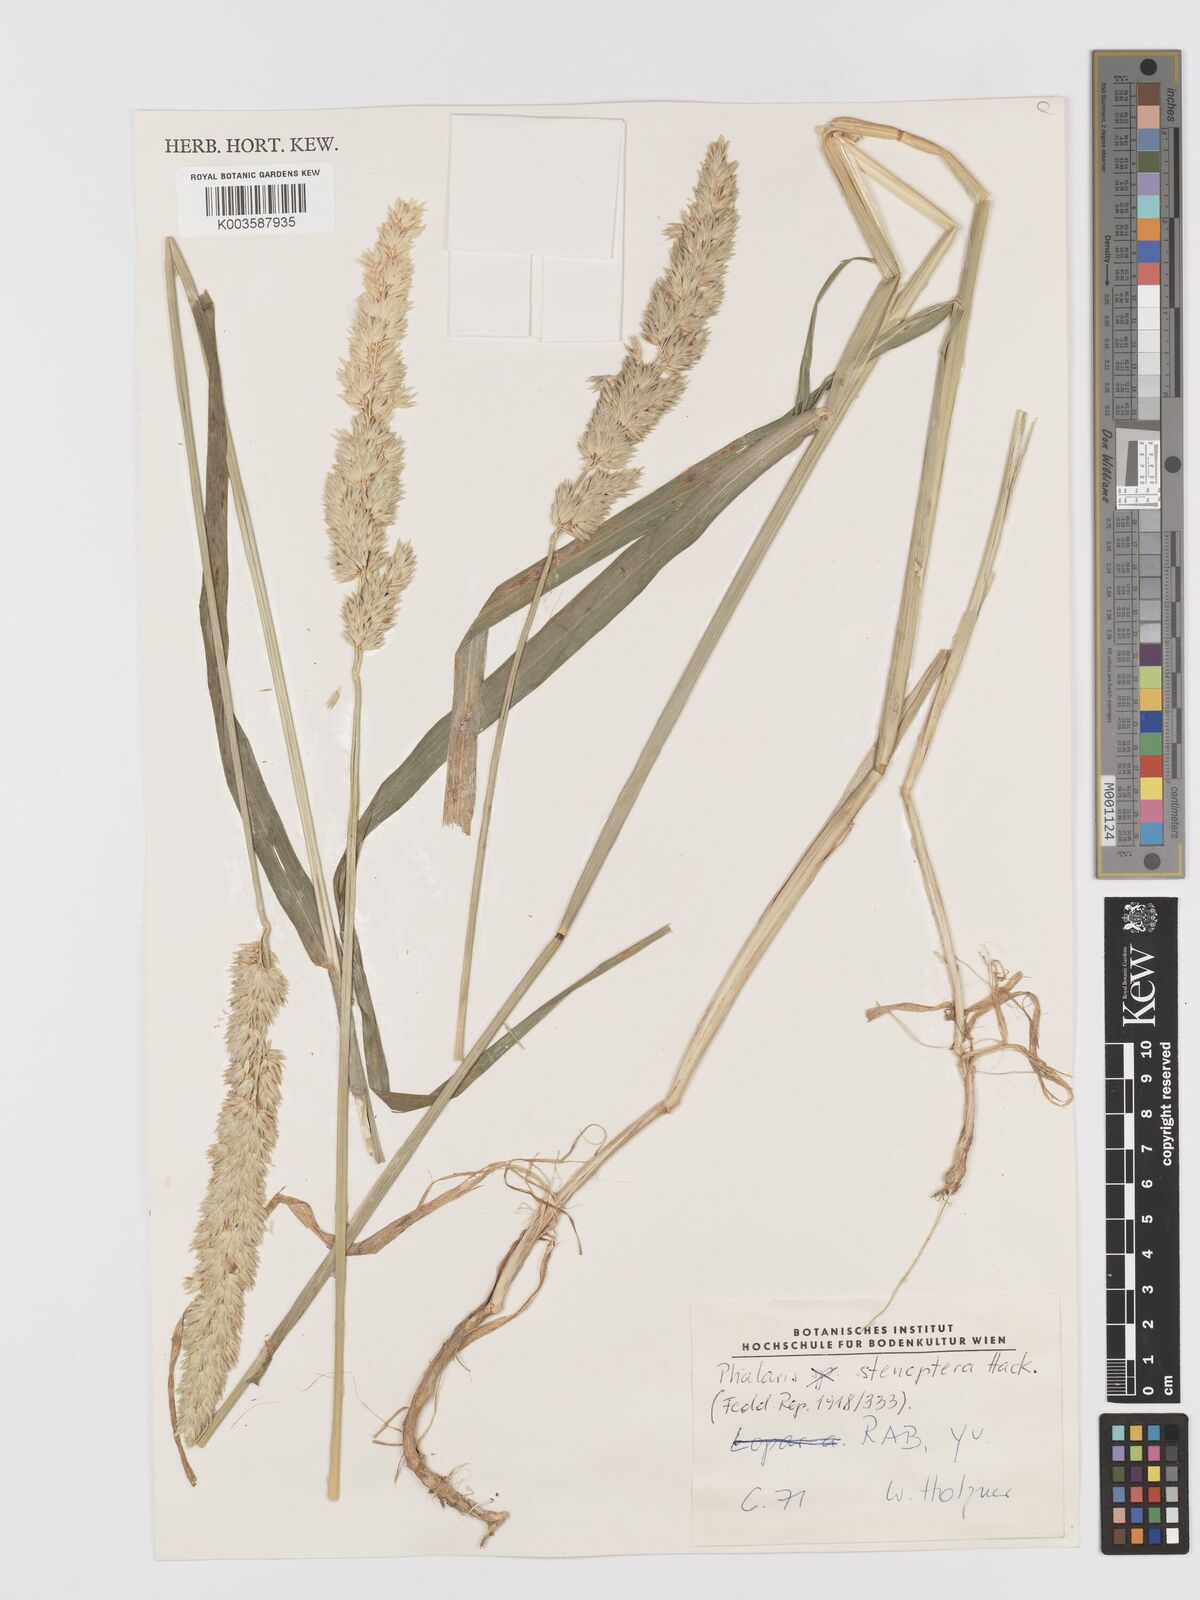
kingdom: Plantae
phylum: Tracheophyta
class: Liliopsida
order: Poales
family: Poaceae
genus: Phalaris
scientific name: Phalaris
